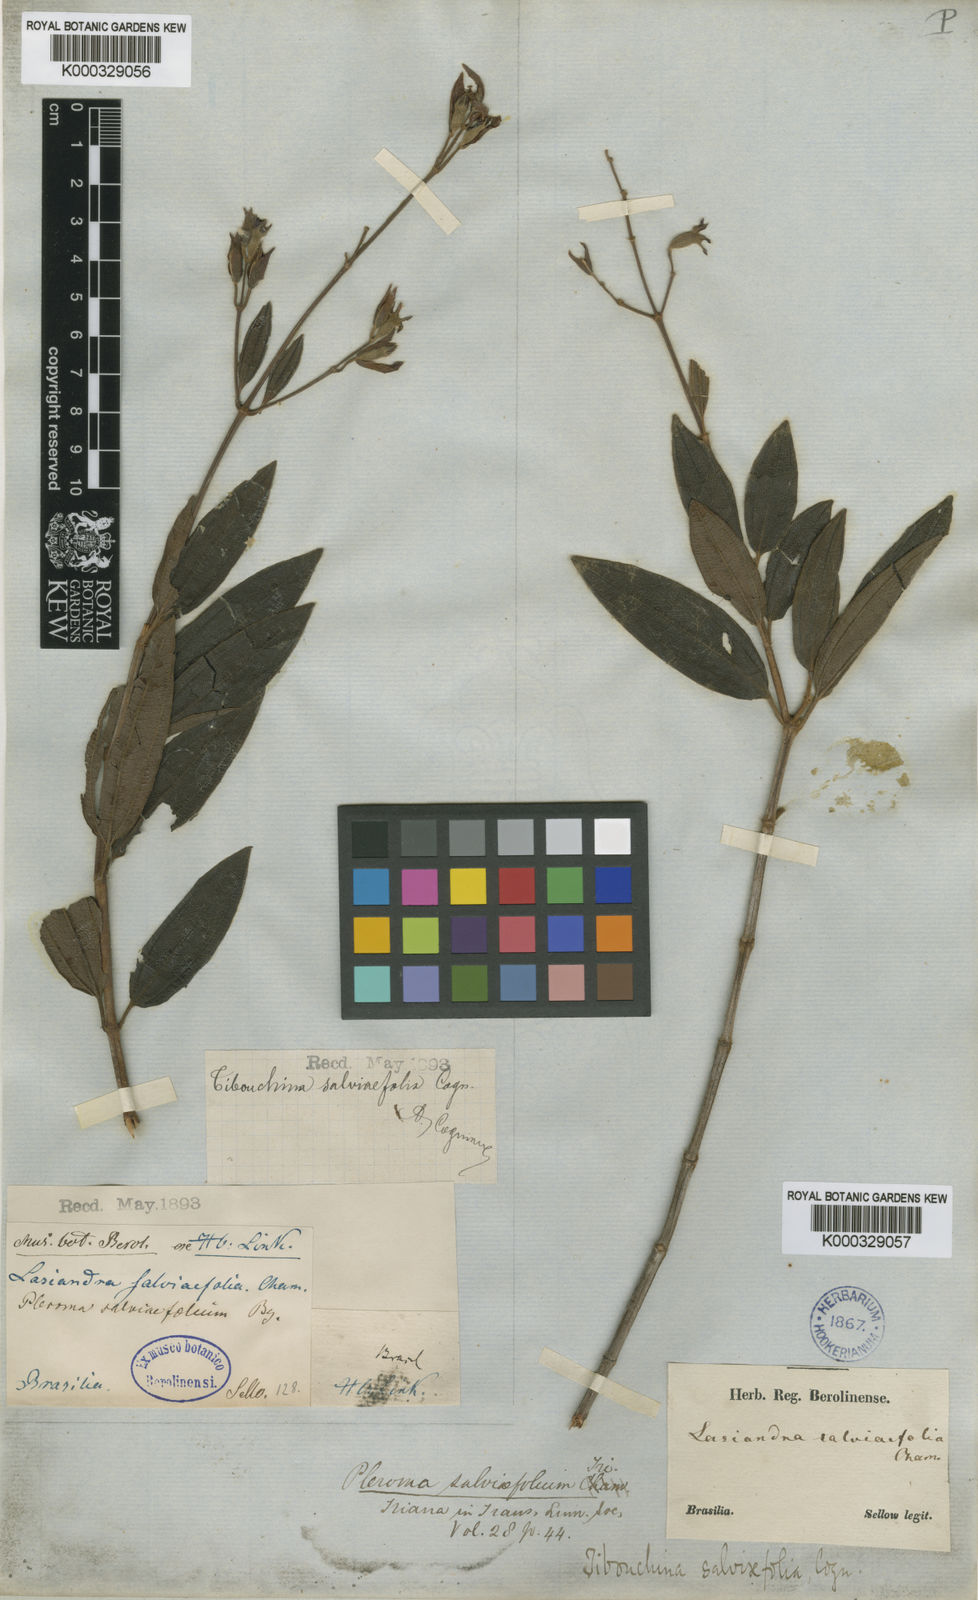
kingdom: Plantae
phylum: Tracheophyta
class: Magnoliopsida
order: Myrtales
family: Melastomataceae
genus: Tibouchina
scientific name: Tibouchina
